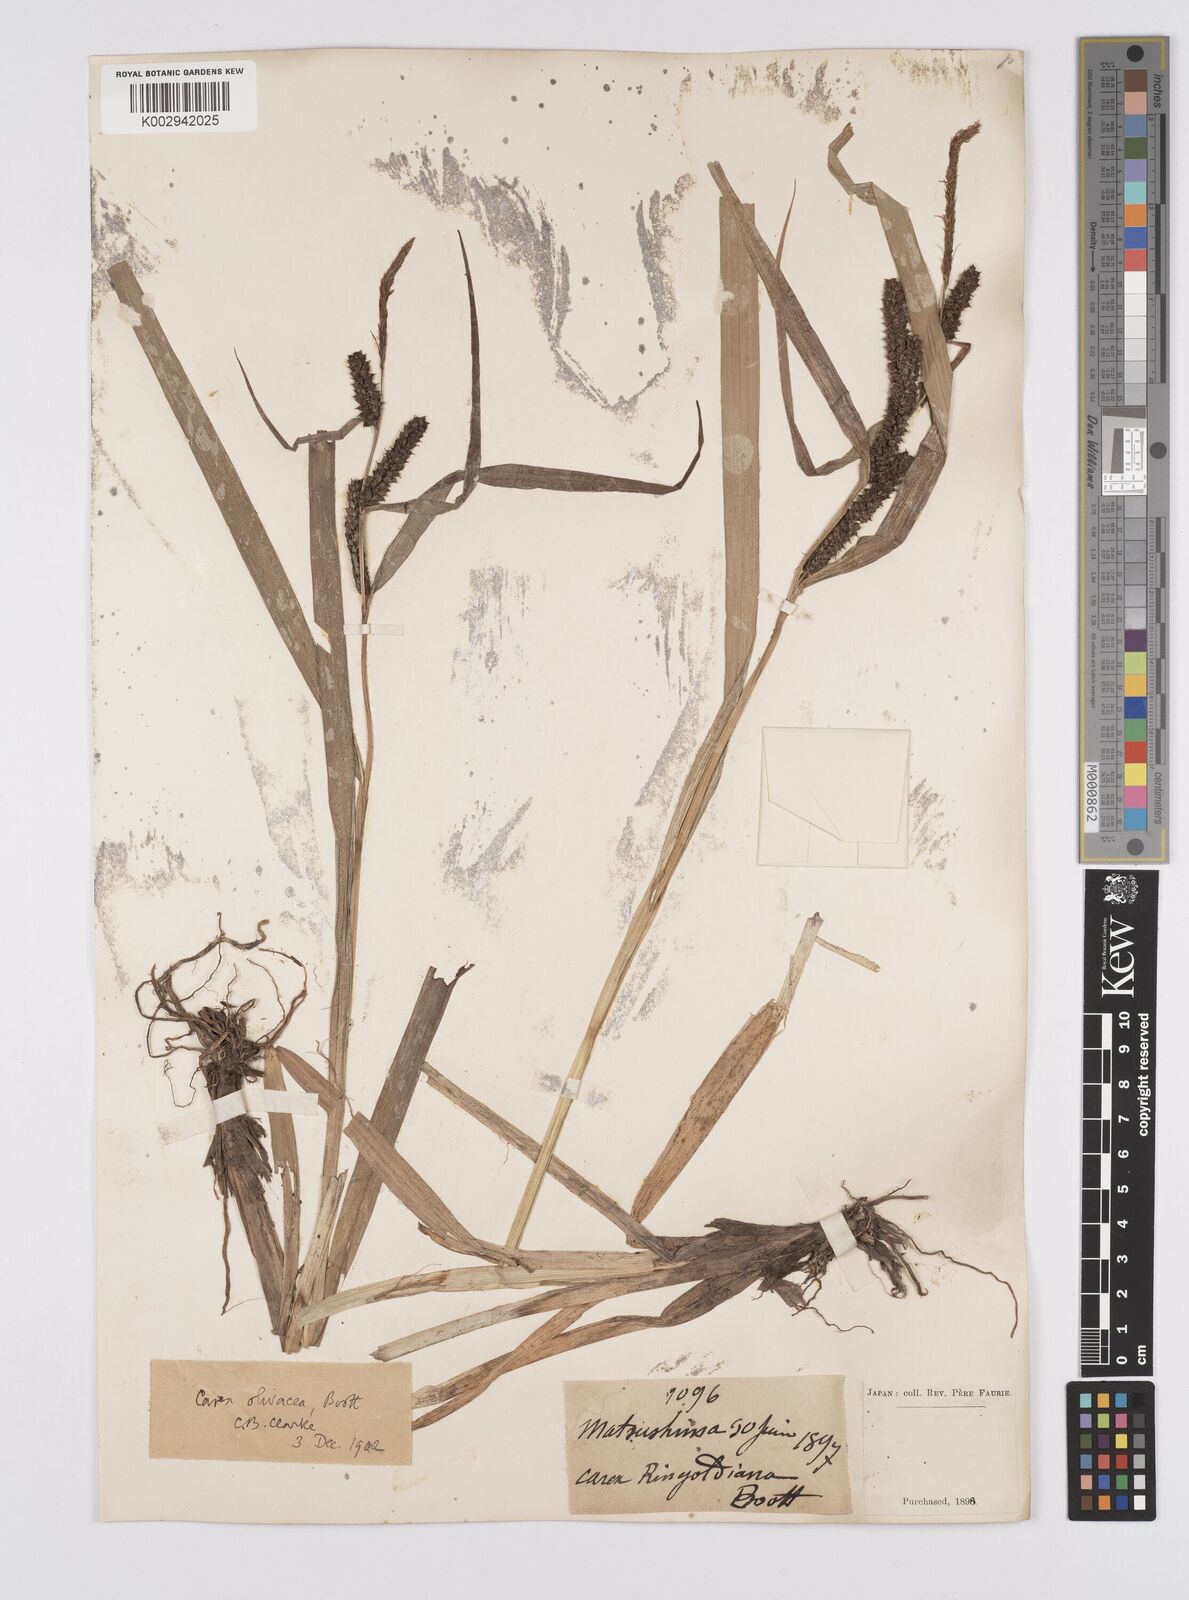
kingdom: Plantae
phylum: Tracheophyta
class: Liliopsida
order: Poales
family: Cyperaceae
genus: Carex
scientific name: Carex olivacea
